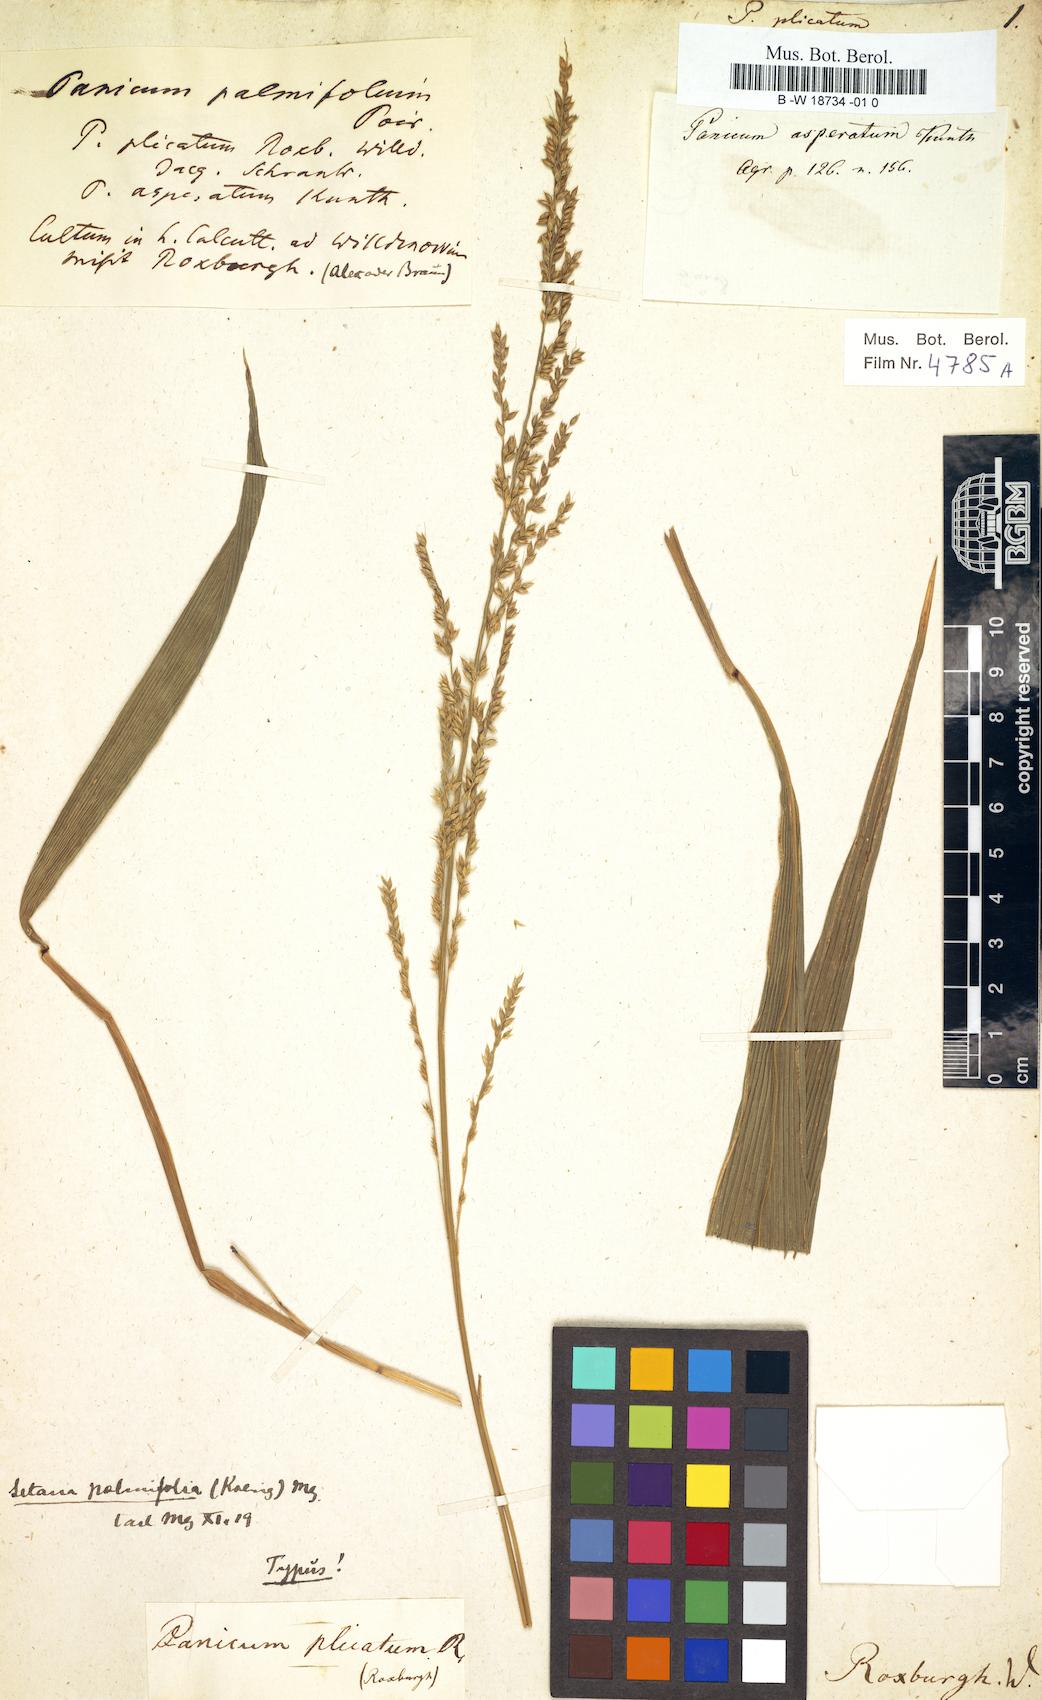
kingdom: Plantae
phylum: Tracheophyta
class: Liliopsida
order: Poales
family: Poaceae
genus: Setaria
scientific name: Setaria plicata
